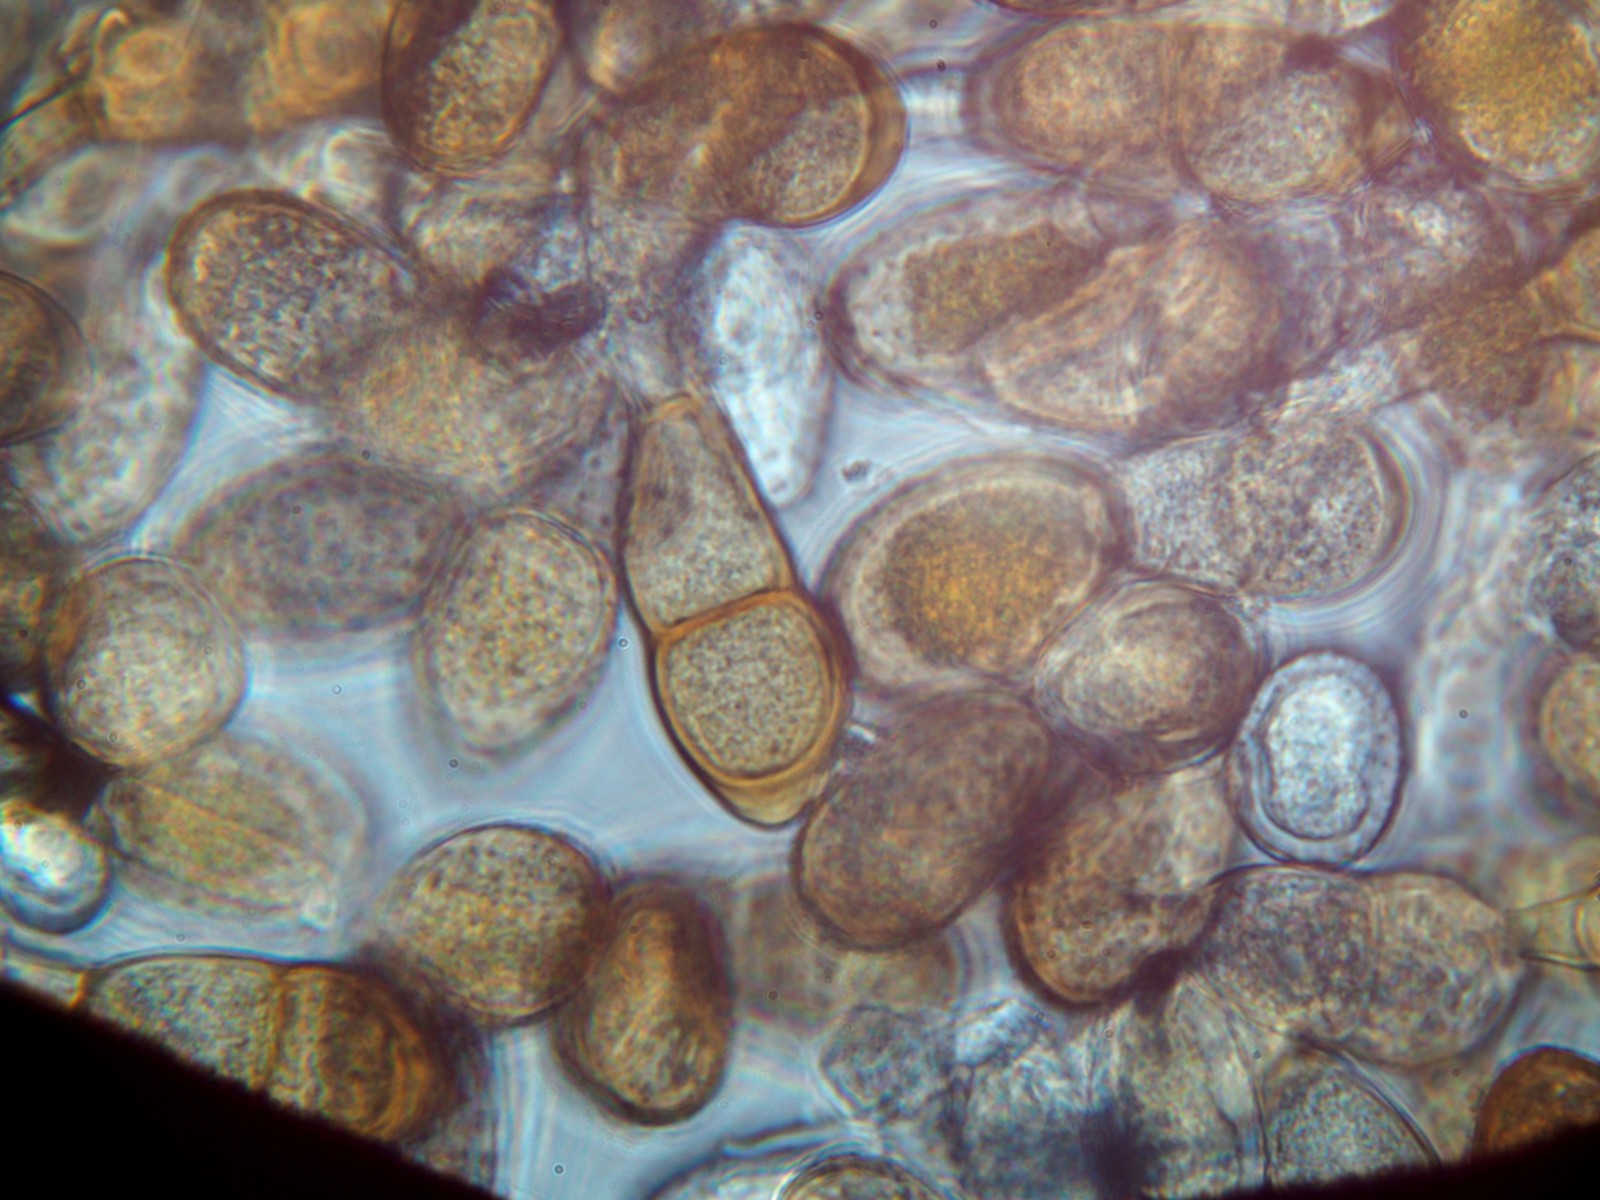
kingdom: Fungi
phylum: Basidiomycota
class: Pucciniomycetes
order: Pucciniales
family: Pucciniaceae
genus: Puccinia
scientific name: Puccinia sessilis
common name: Arum rust
